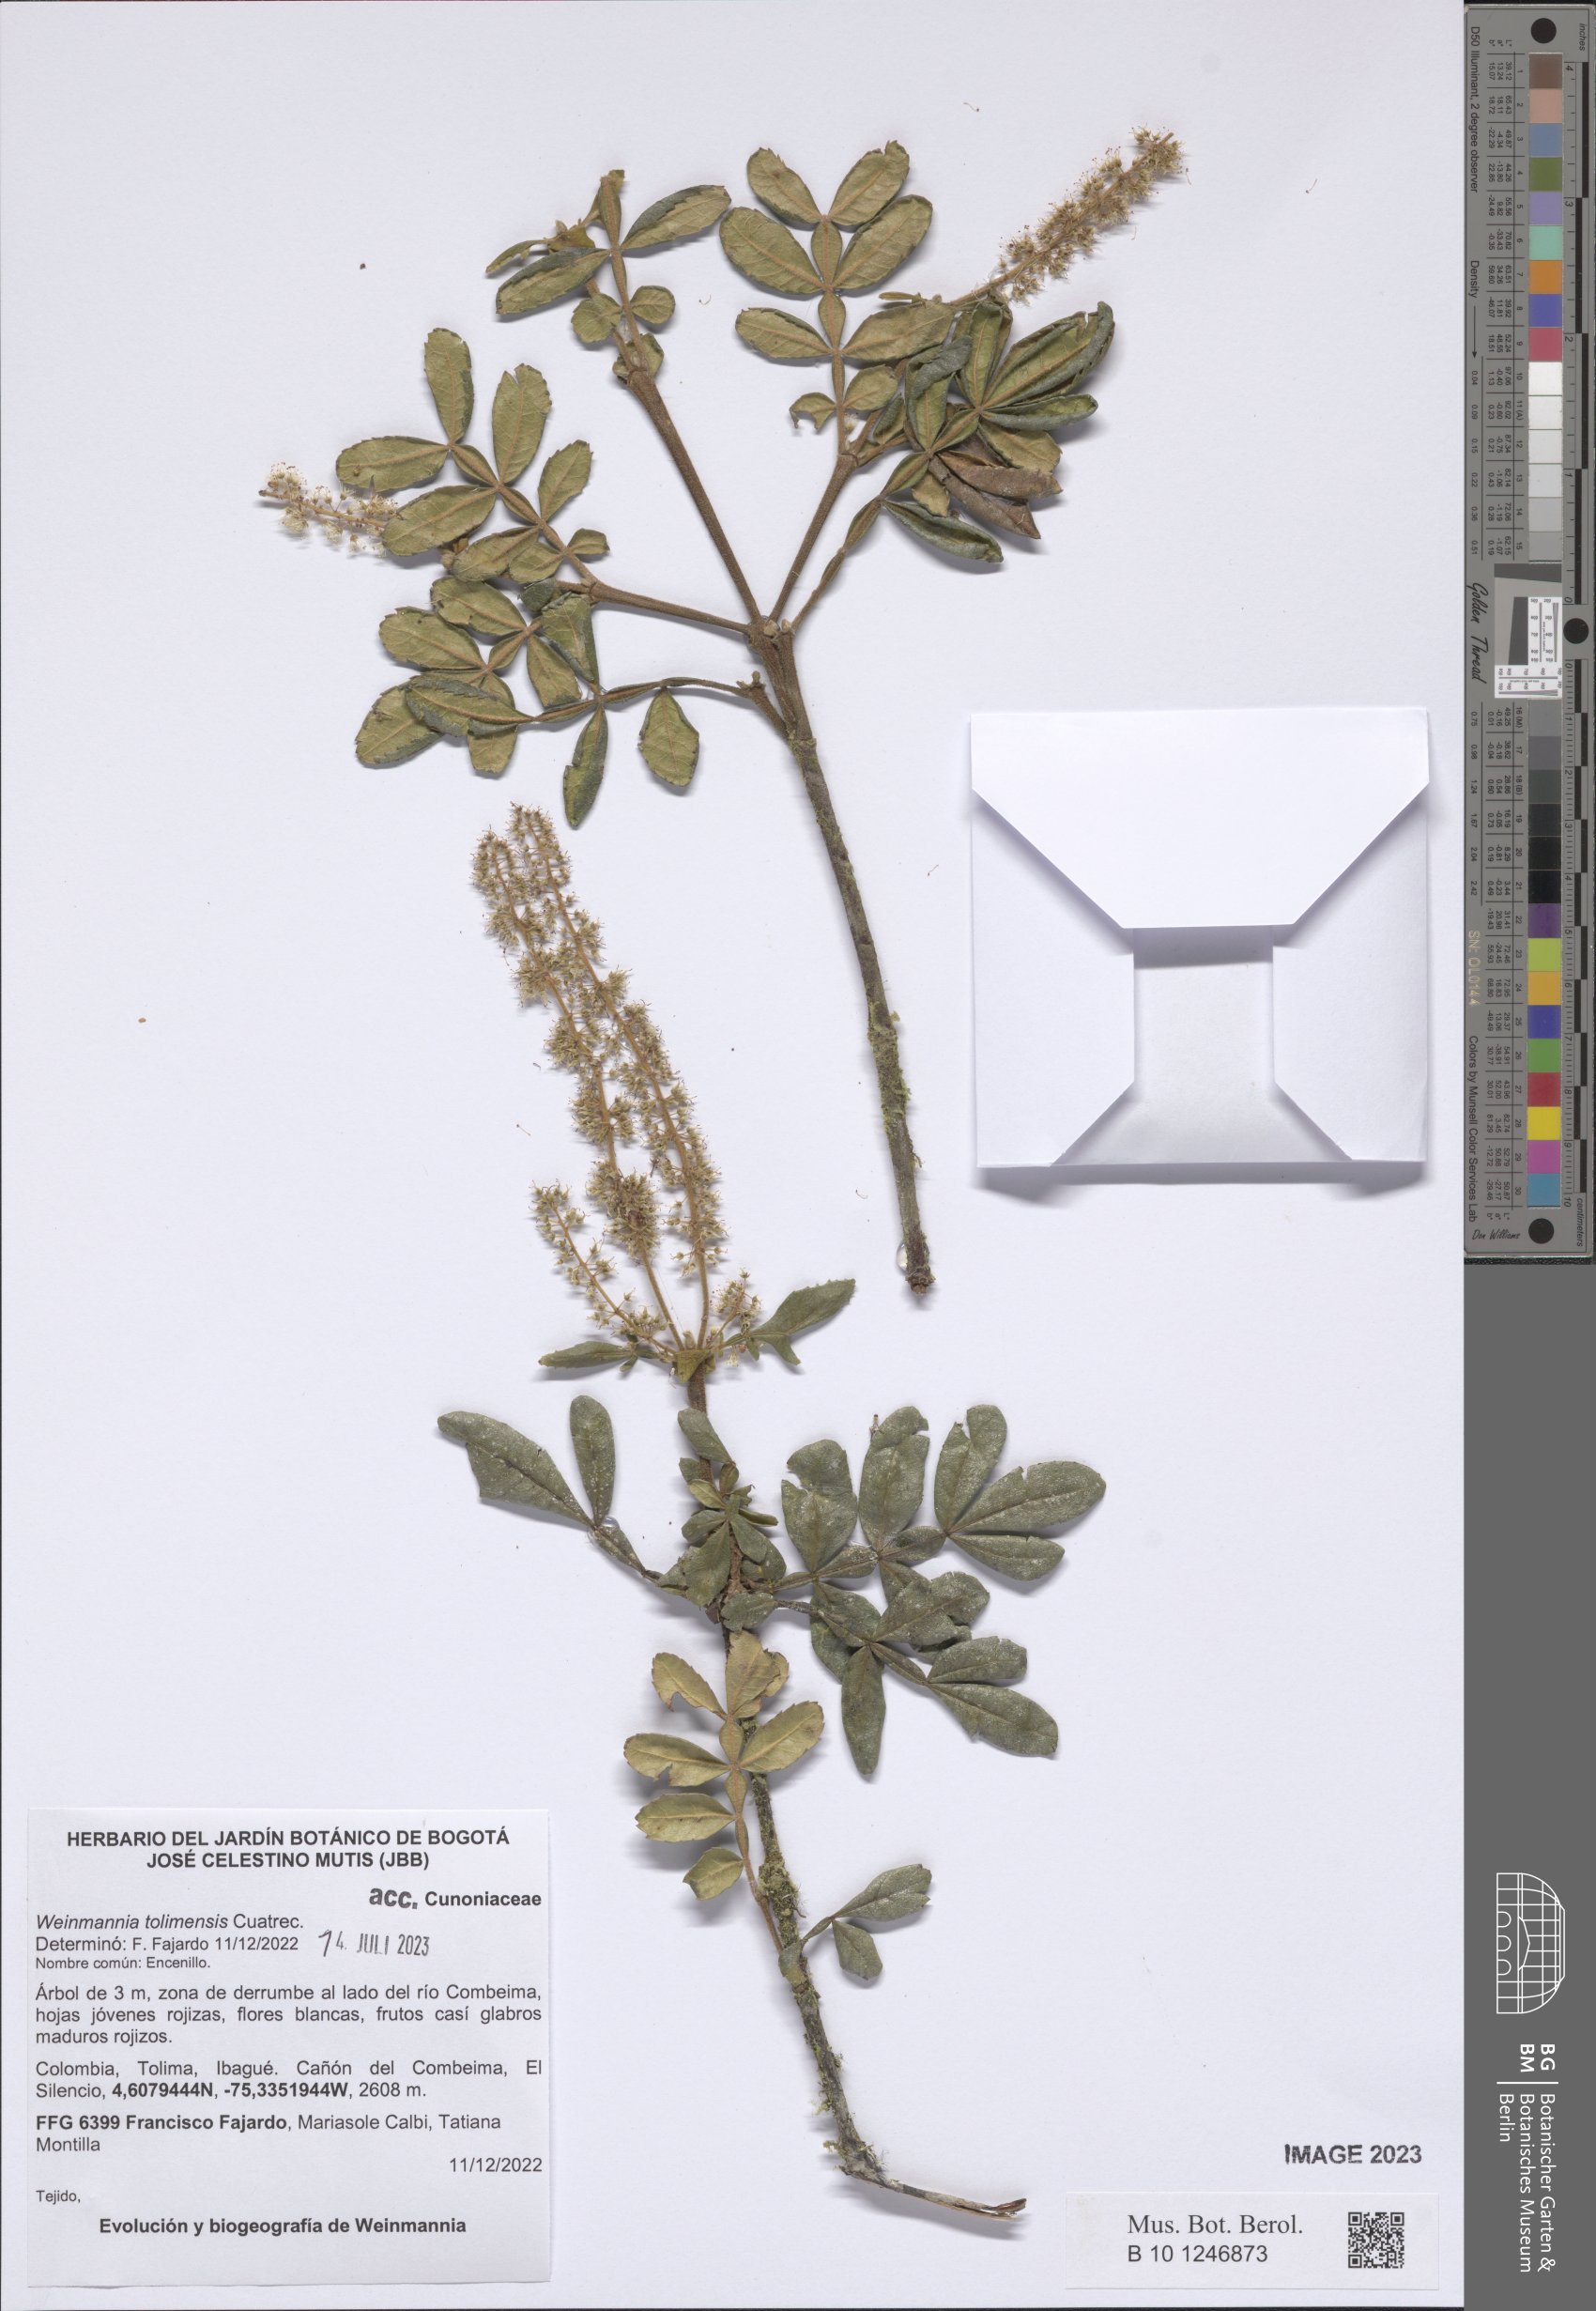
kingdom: Plantae
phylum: Tracheophyta
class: Magnoliopsida
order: Oxalidales
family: Cunoniaceae
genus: Weinmannia
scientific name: Weinmannia tolimensis
